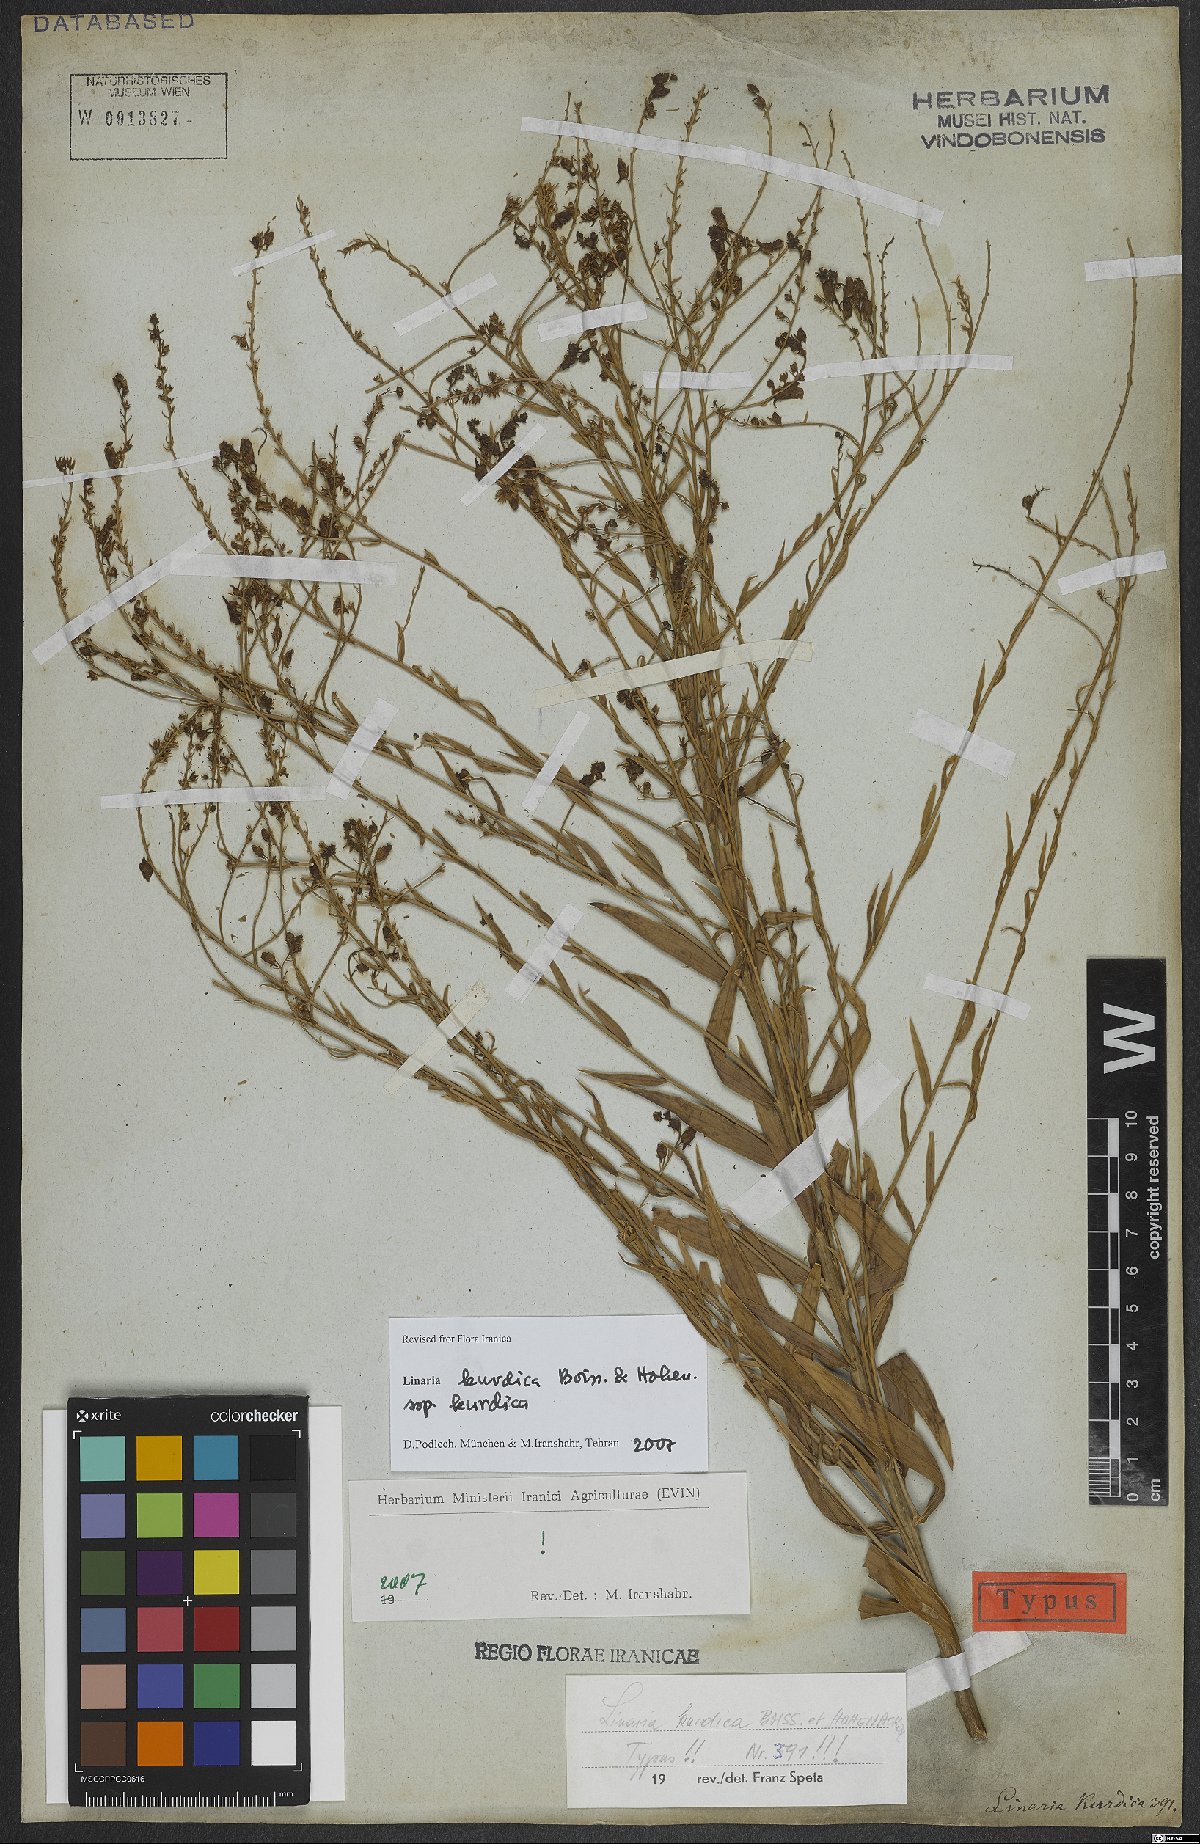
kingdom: Plantae
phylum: Tracheophyta
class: Magnoliopsida
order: Lamiales
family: Plantaginaceae
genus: Linaria
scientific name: Linaria kurdica
